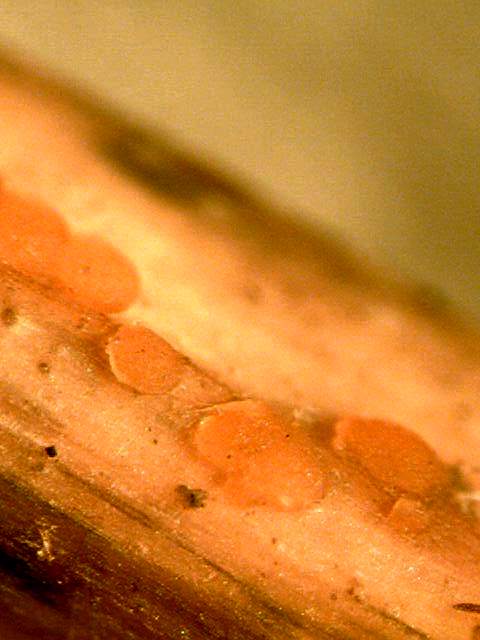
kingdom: Fungi
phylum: Ascomycota
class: Leotiomycetes
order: Helotiales
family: Calloriaceae
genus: Calloria
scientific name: Calloria urticae
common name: nælde-orangeskive
